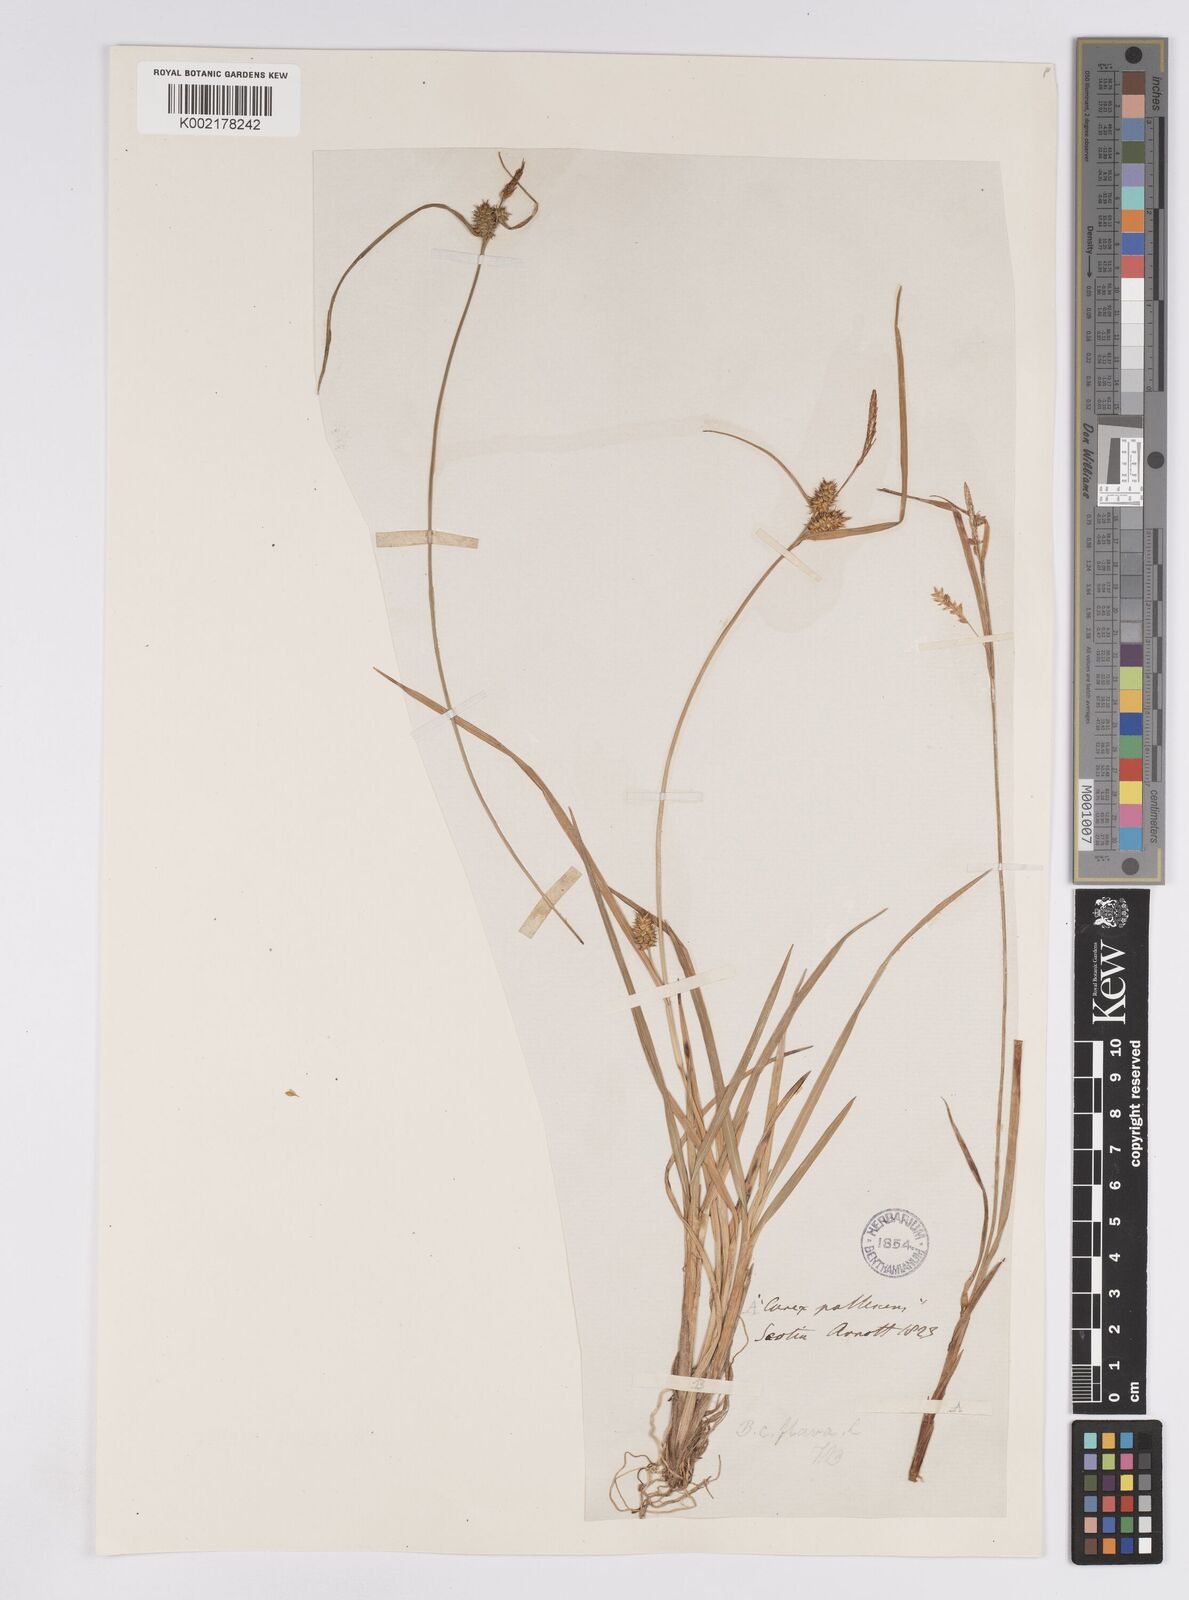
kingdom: Plantae
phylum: Tracheophyta
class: Liliopsida
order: Poales
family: Cyperaceae
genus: Carex
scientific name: Carex demissa
